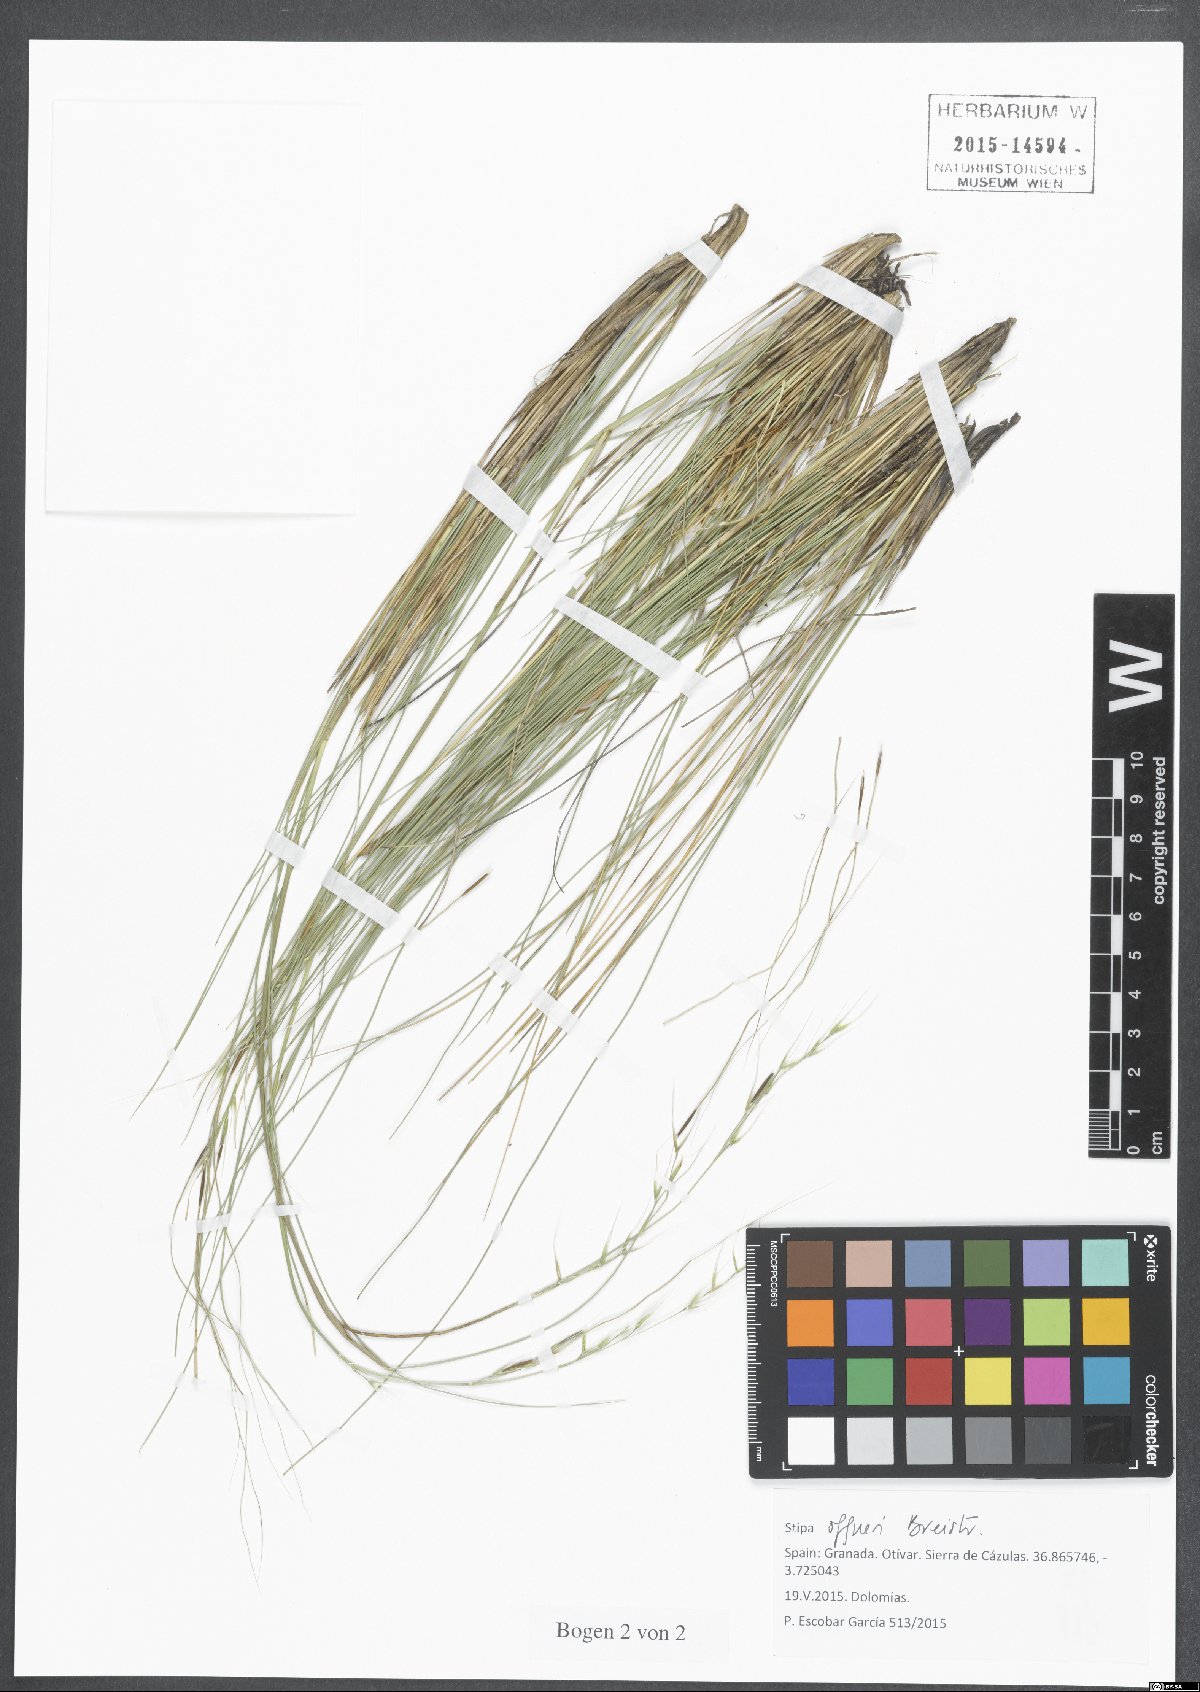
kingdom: Plantae
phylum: Tracheophyta
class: Liliopsida
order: Poales
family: Poaceae
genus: Stipa
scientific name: Stipa offneri
